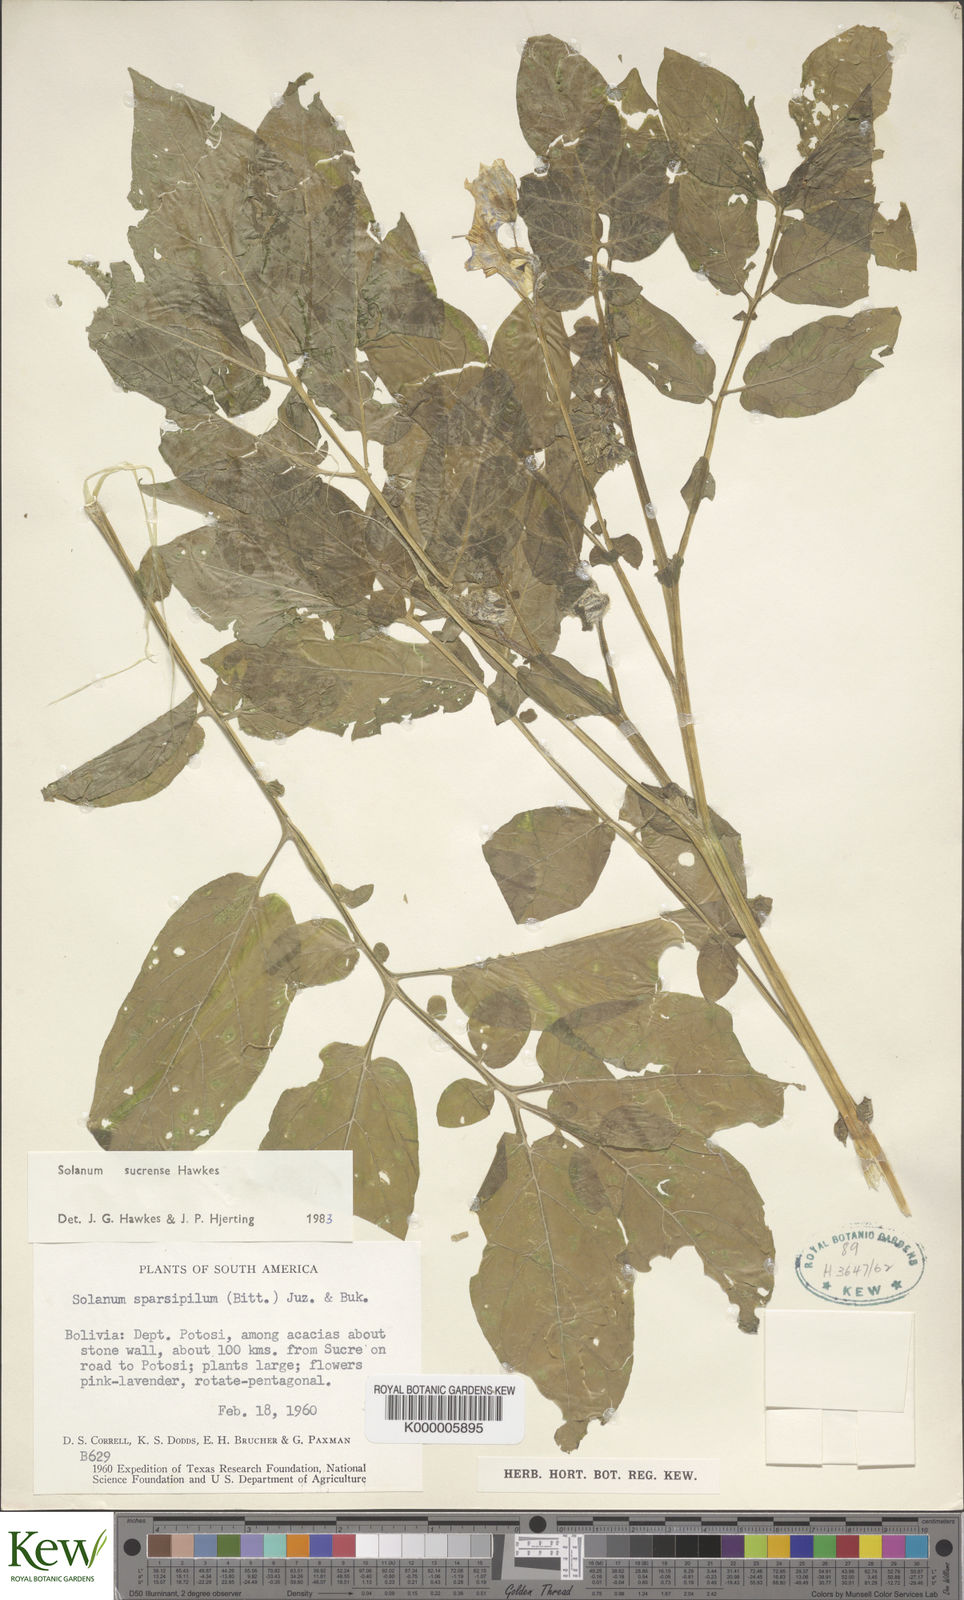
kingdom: Plantae
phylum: Tracheophyta
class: Magnoliopsida
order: Solanales
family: Solanaceae
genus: Solanum
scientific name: Solanum brevicaule
